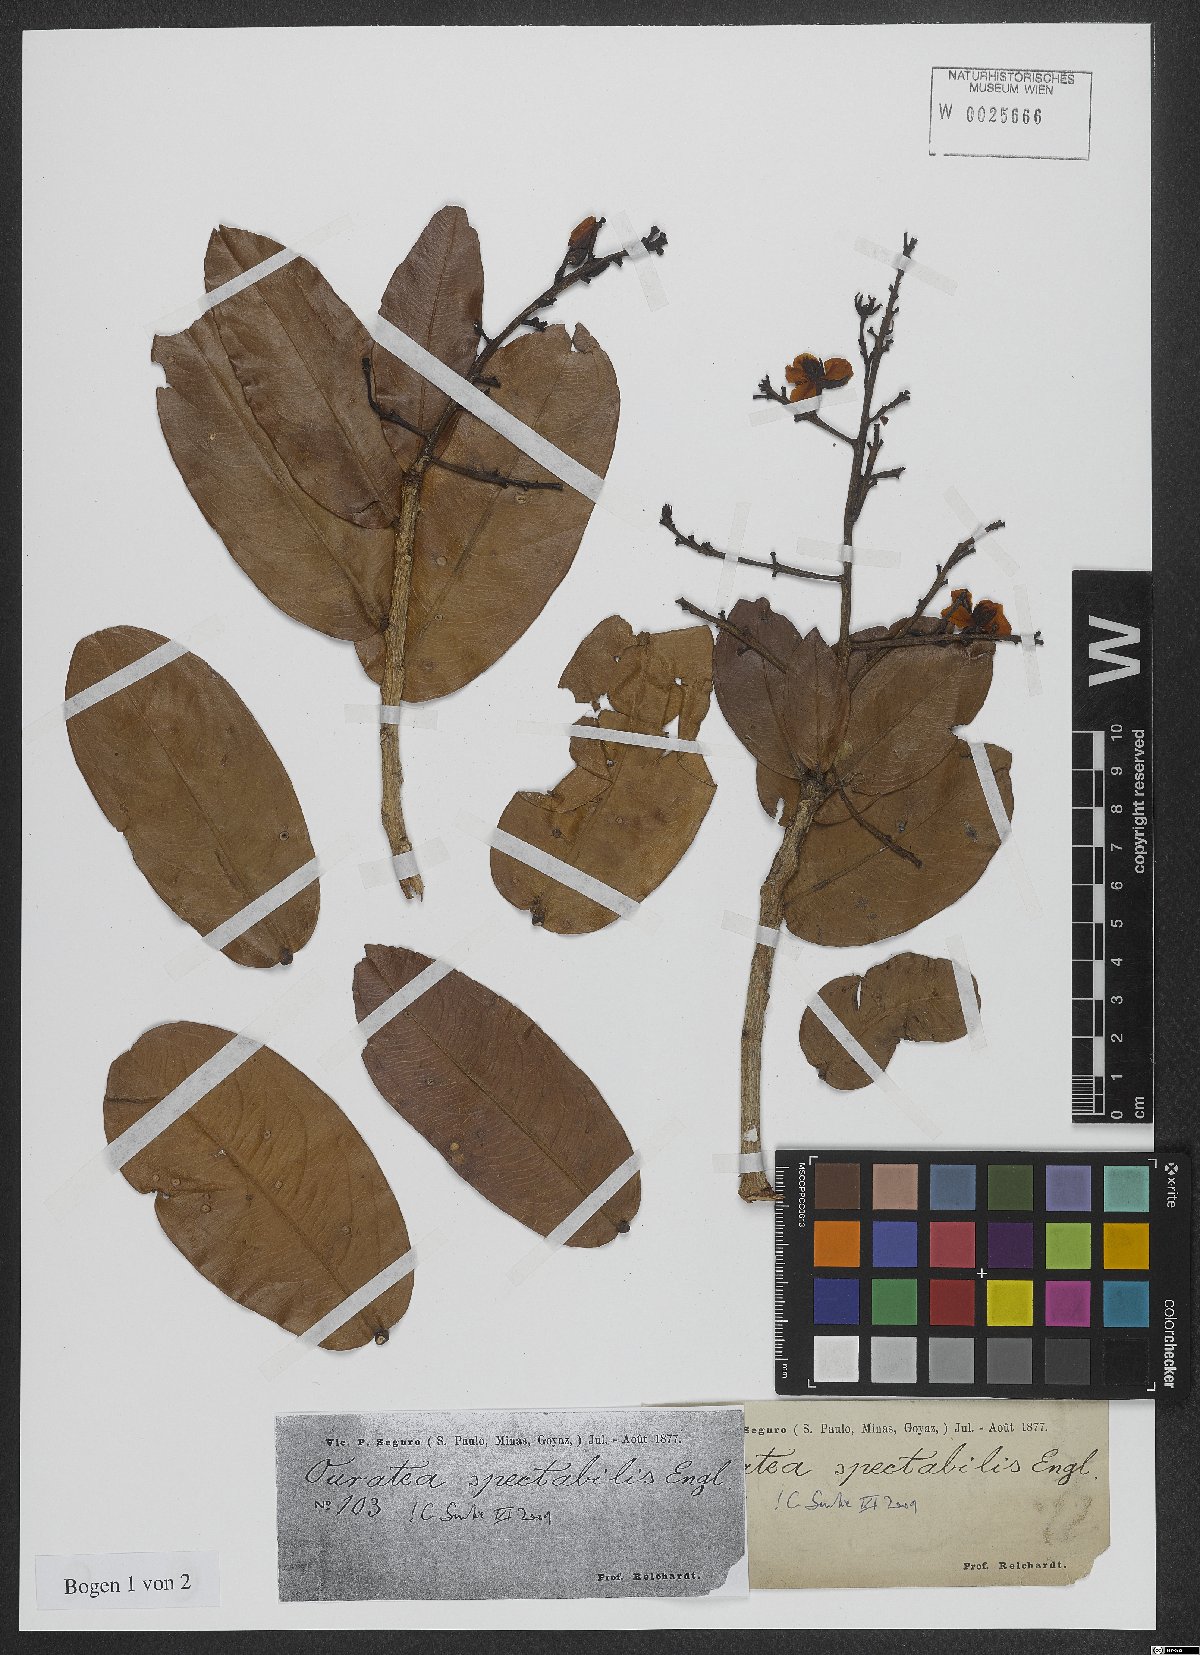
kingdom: Plantae
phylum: Tracheophyta
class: Magnoliopsida
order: Malpighiales
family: Ochnaceae
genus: Ouratea
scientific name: Ouratea spectabilis
